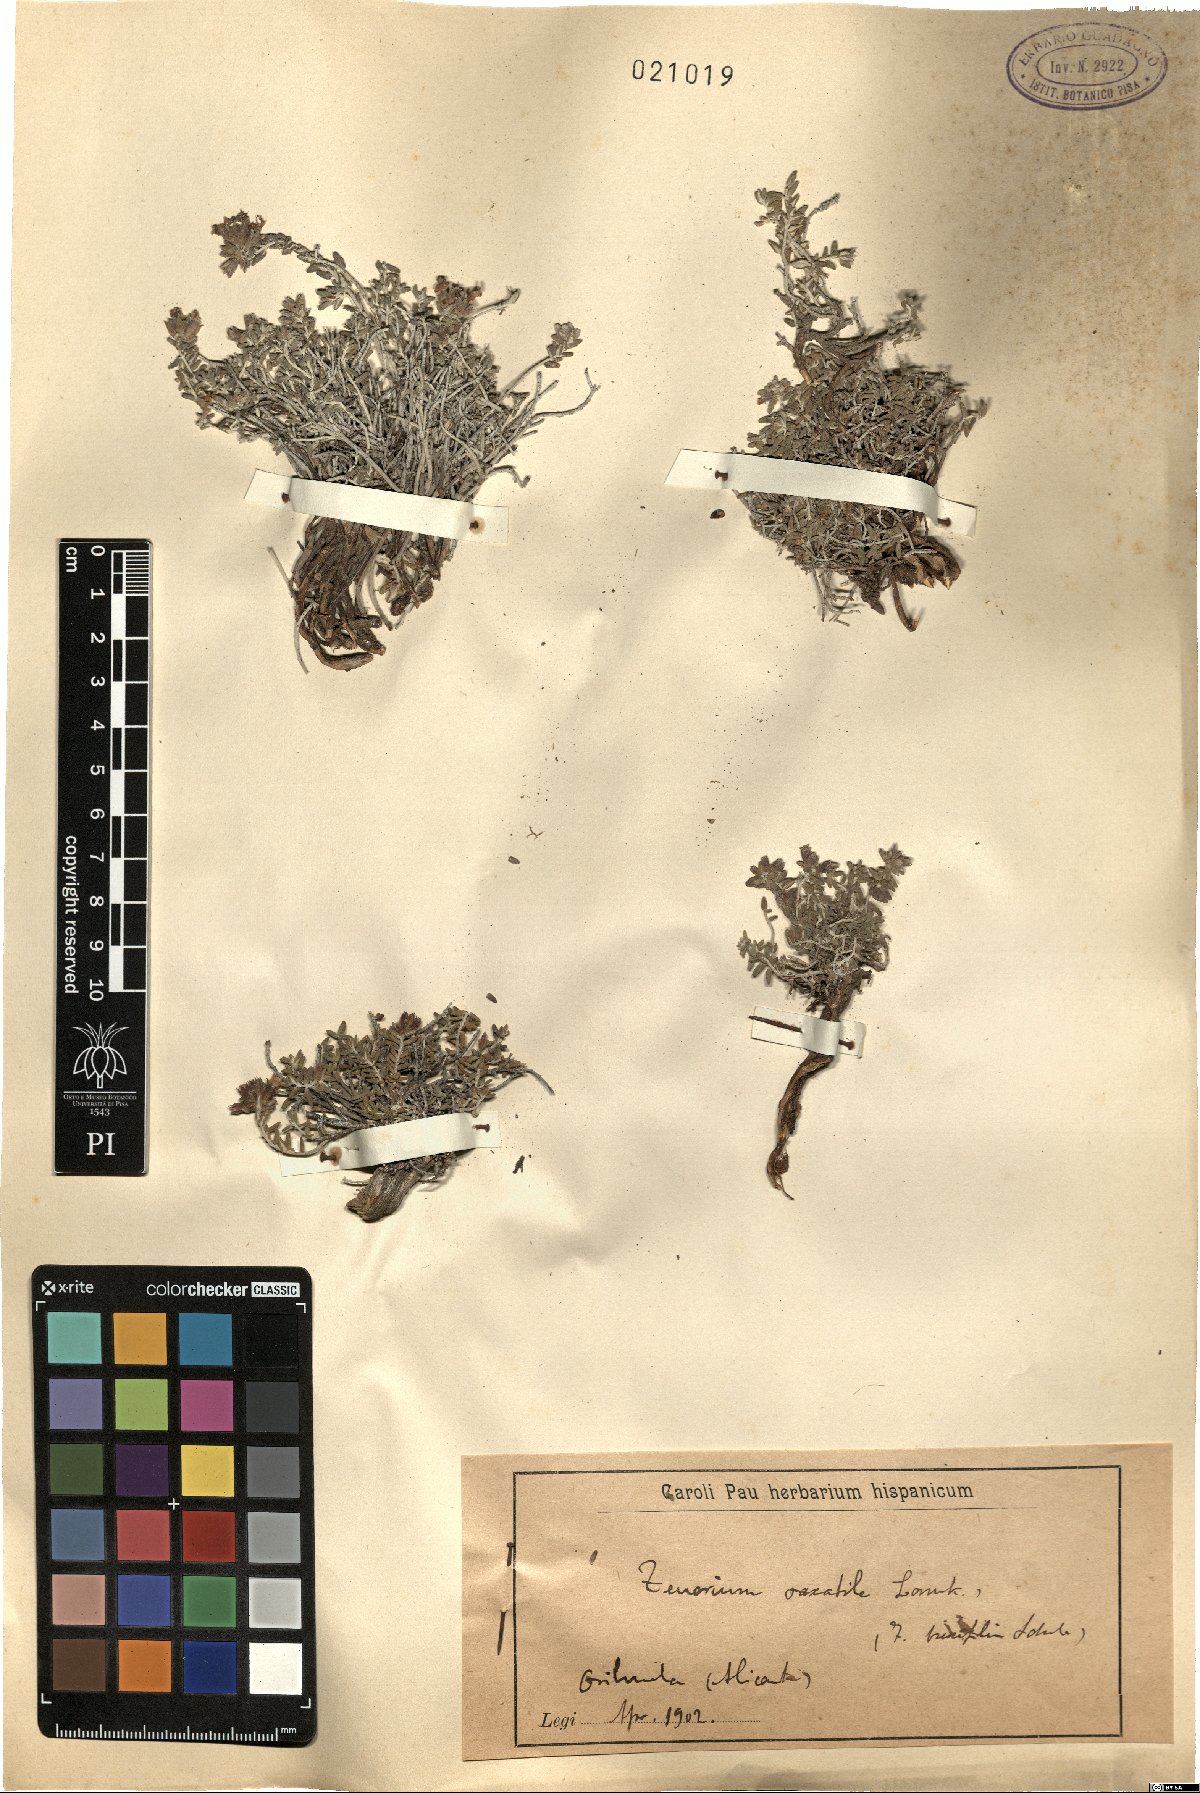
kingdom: Plantae
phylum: Tracheophyta
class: Magnoliopsida
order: Lamiales
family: Lamiaceae
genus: Teucrium
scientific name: Teucrium pyrenaicum
